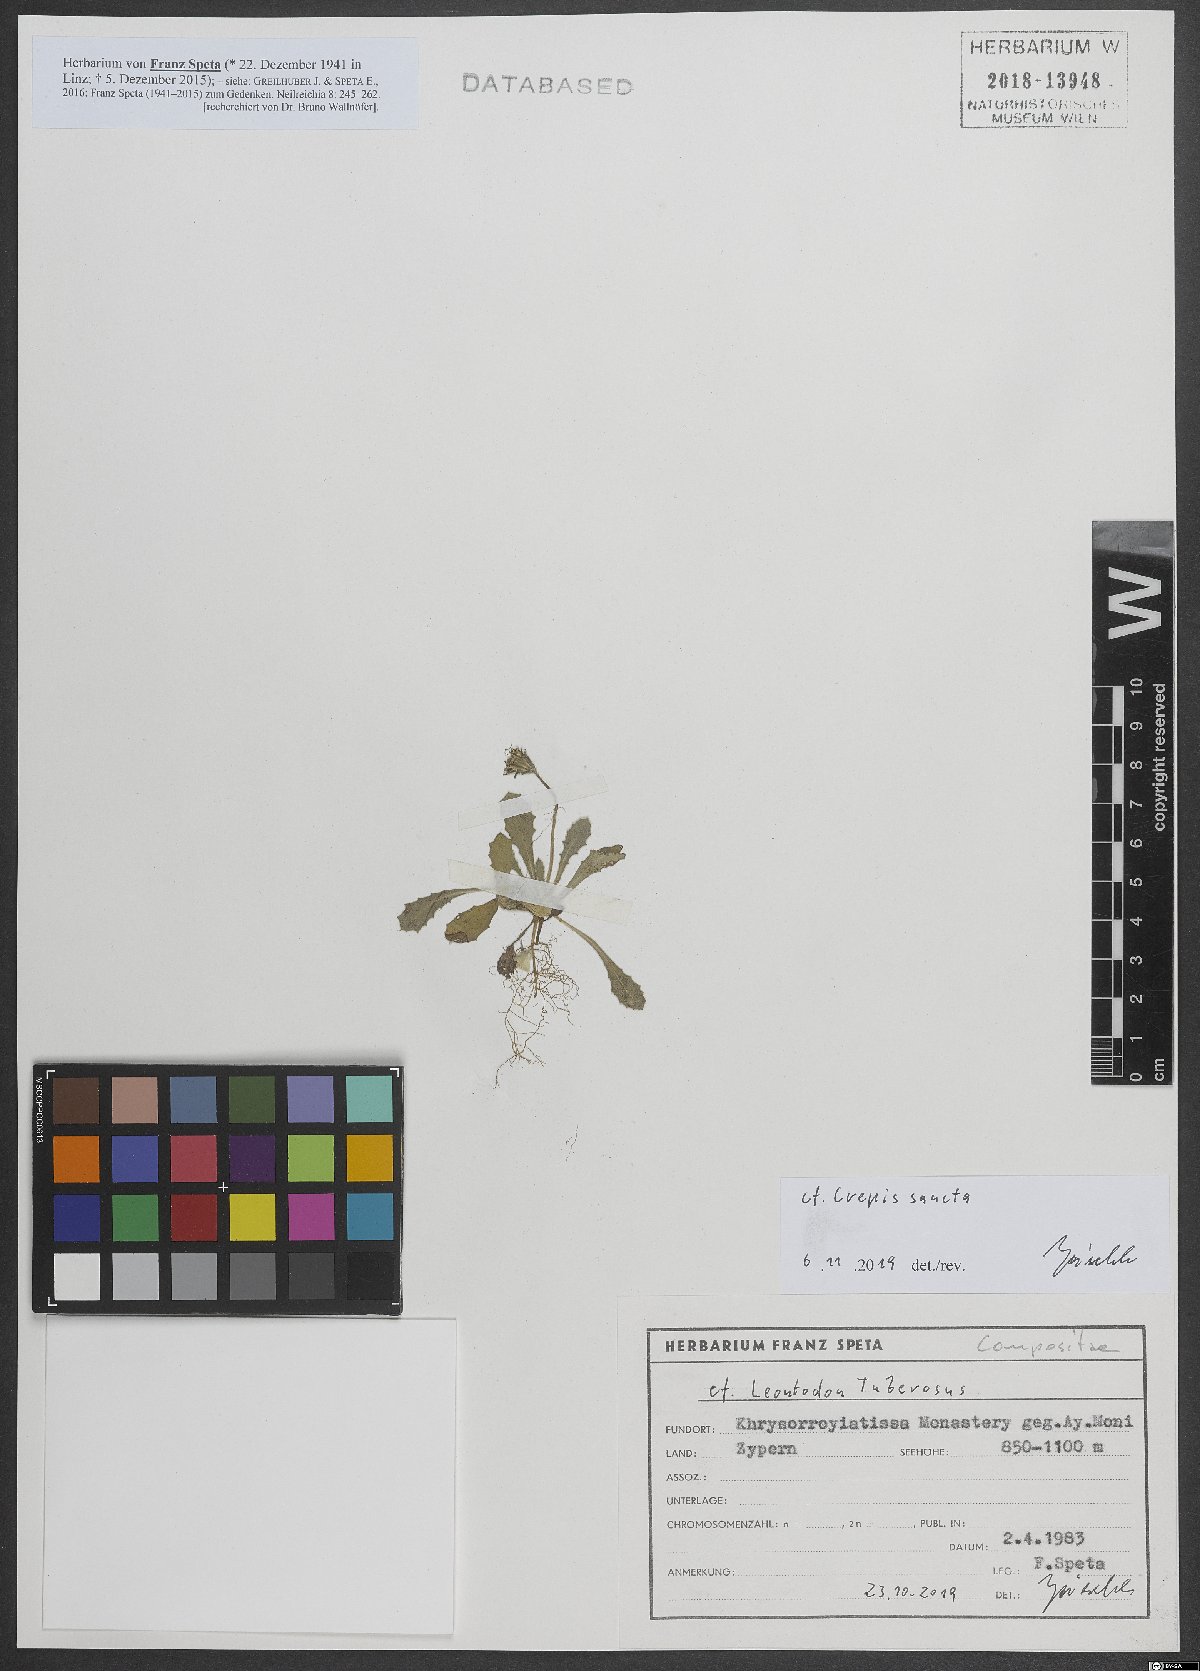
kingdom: Plantae
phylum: Tracheophyta
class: Magnoliopsida
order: Asterales
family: Asteraceae
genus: Crepis
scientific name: Crepis sancta
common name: Hawk's-beard
